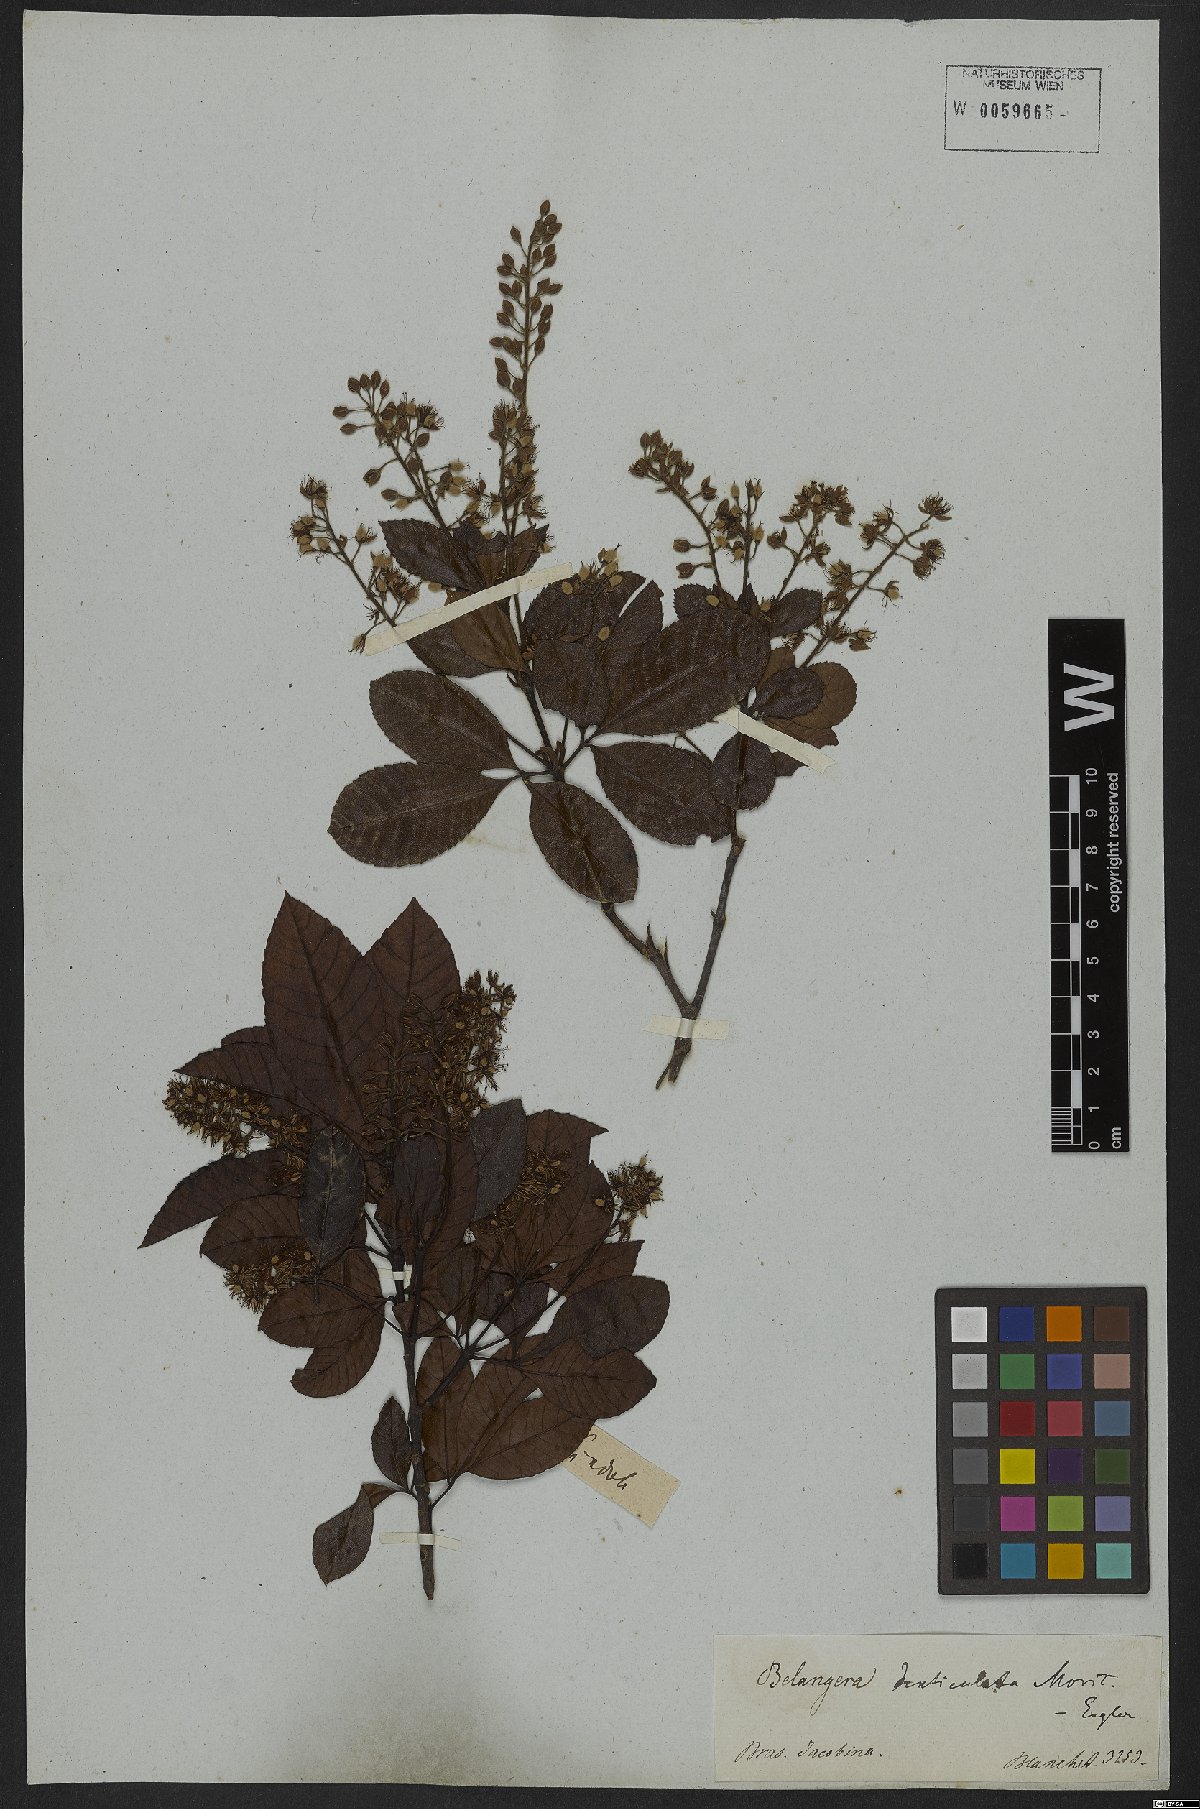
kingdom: Plantae
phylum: Tracheophyta
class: Magnoliopsida
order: Oxalidales
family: Cunoniaceae
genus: Lamanonia
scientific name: Lamanonia
